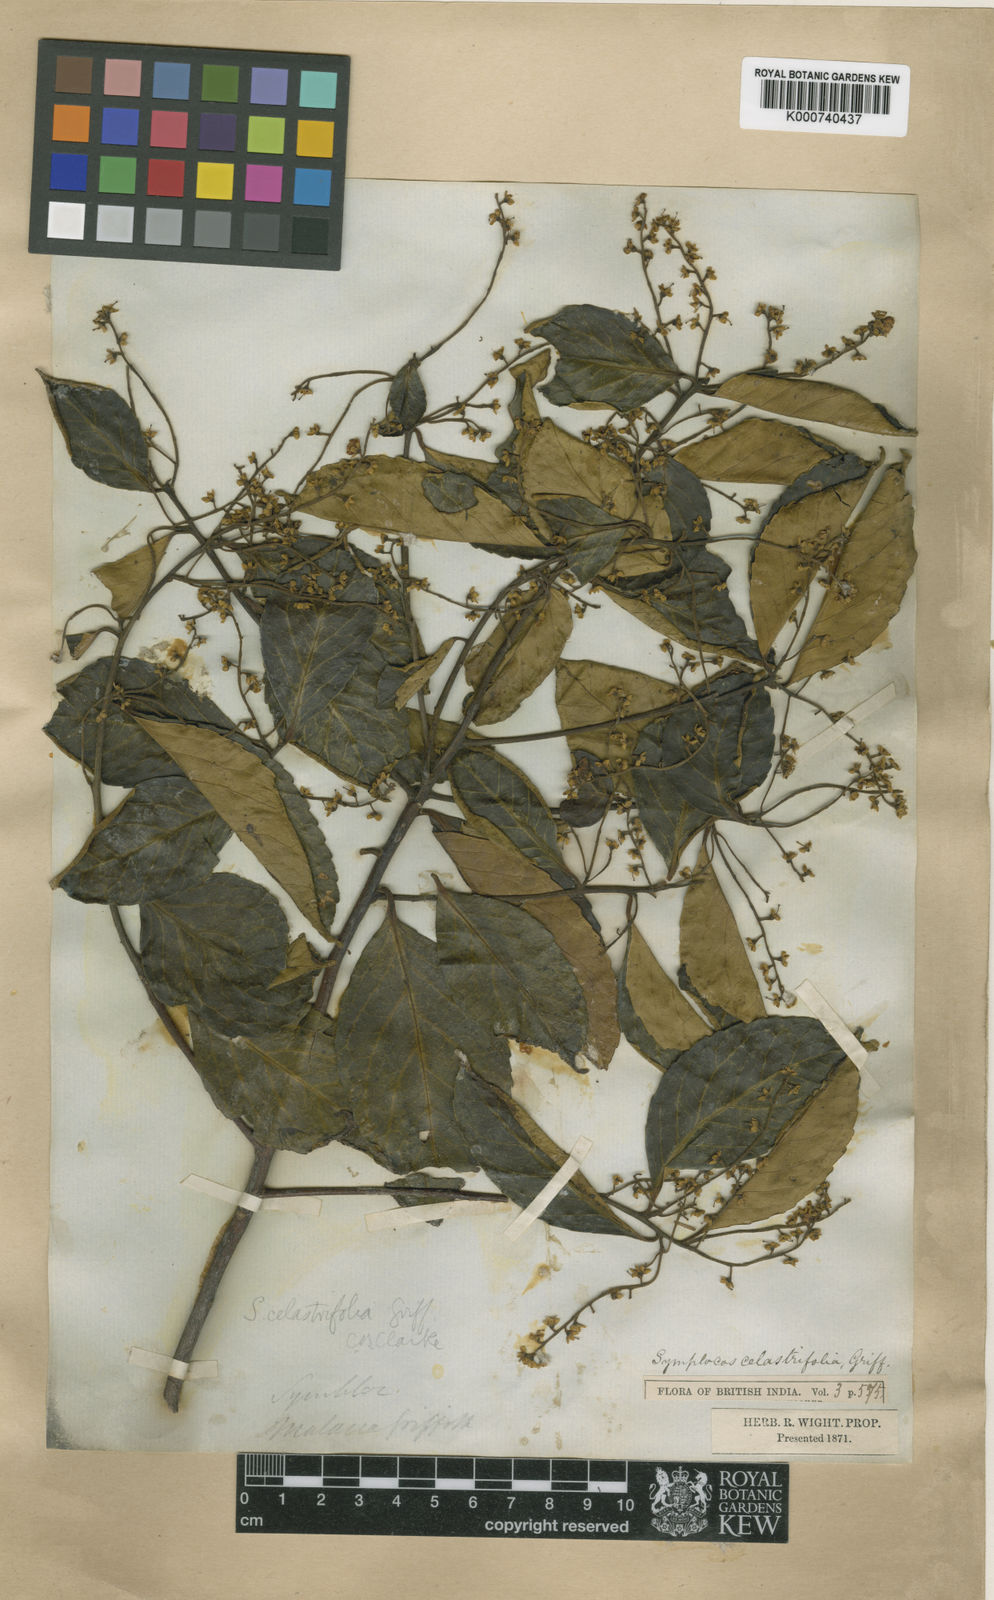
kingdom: Plantae
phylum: Tracheophyta
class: Magnoliopsida
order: Ericales
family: Symplocaceae
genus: Symplocos
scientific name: Symplocos celastrifolia
